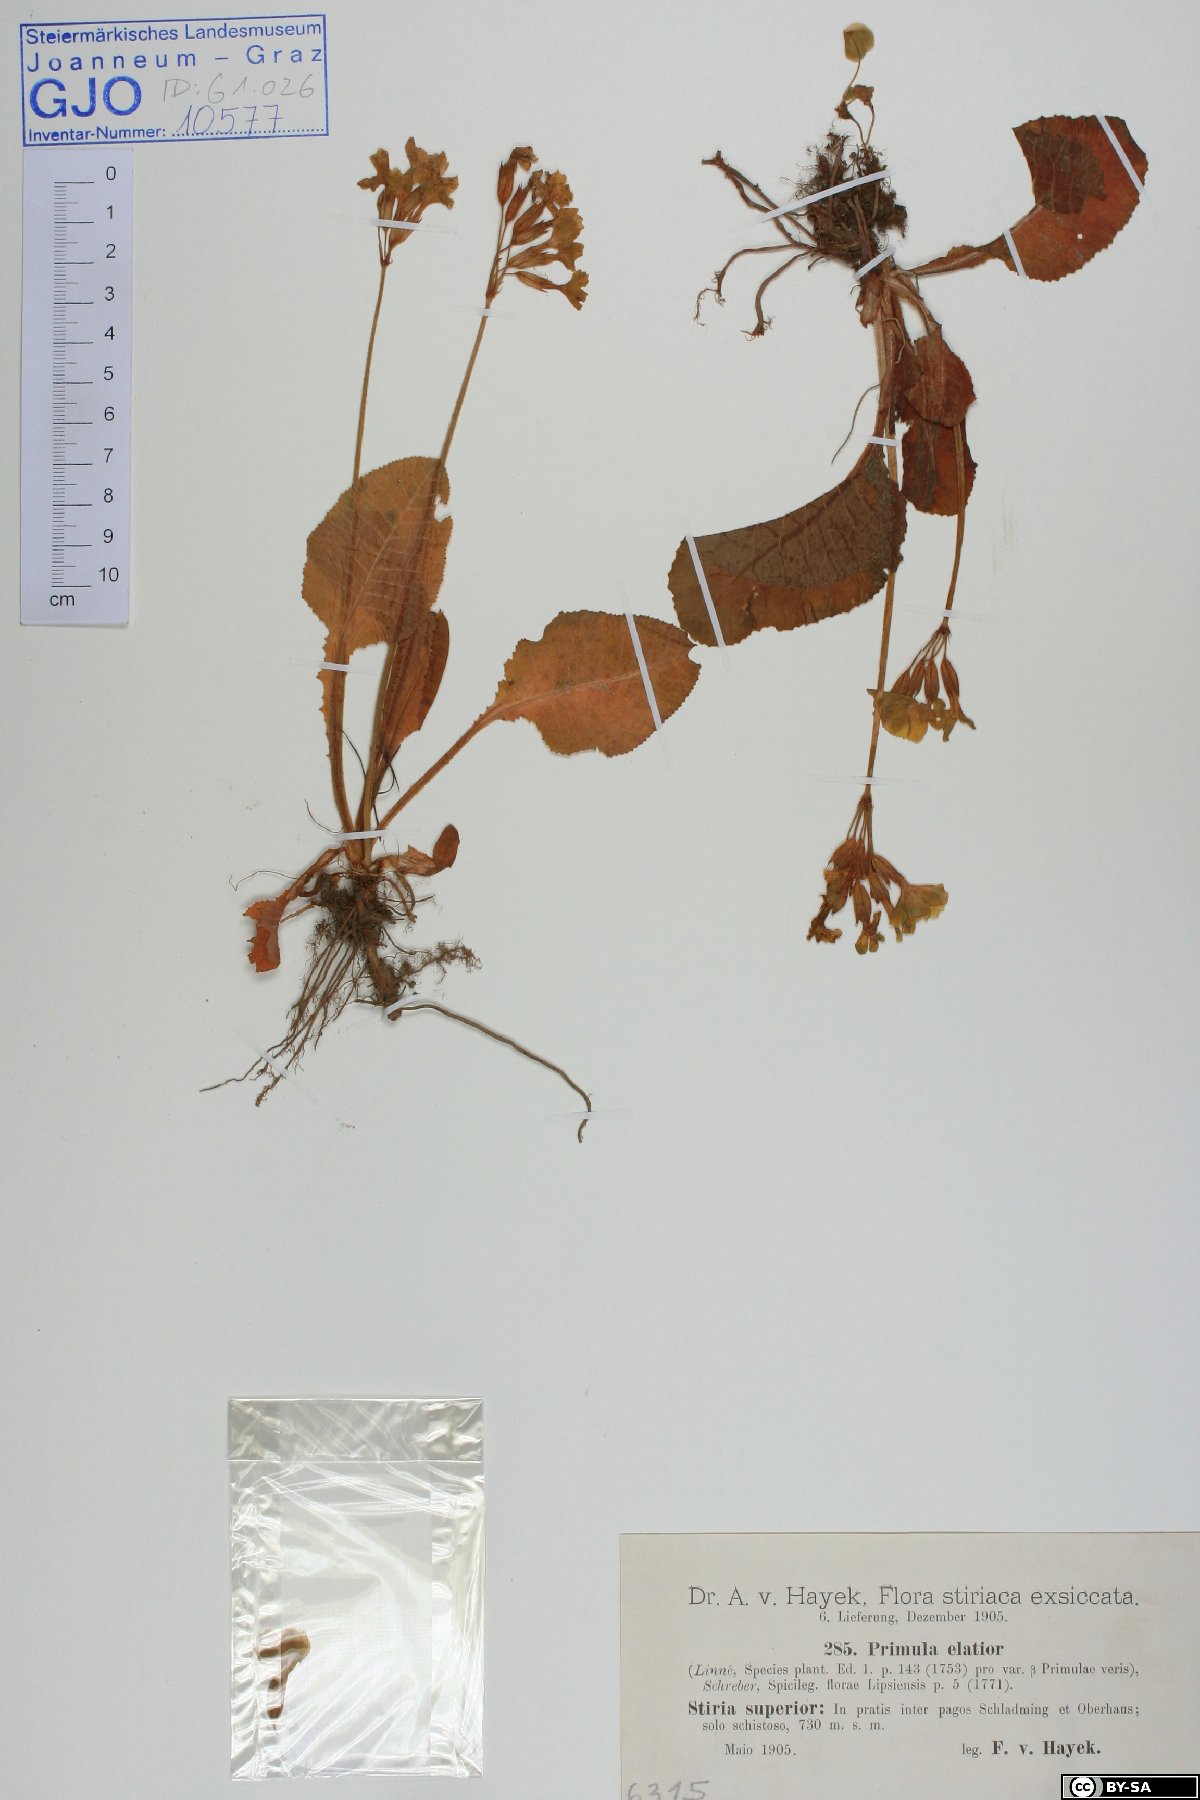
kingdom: Plantae
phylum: Tracheophyta
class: Magnoliopsida
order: Ericales
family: Primulaceae
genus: Primula
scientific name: Primula elatior
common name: Oxlip
